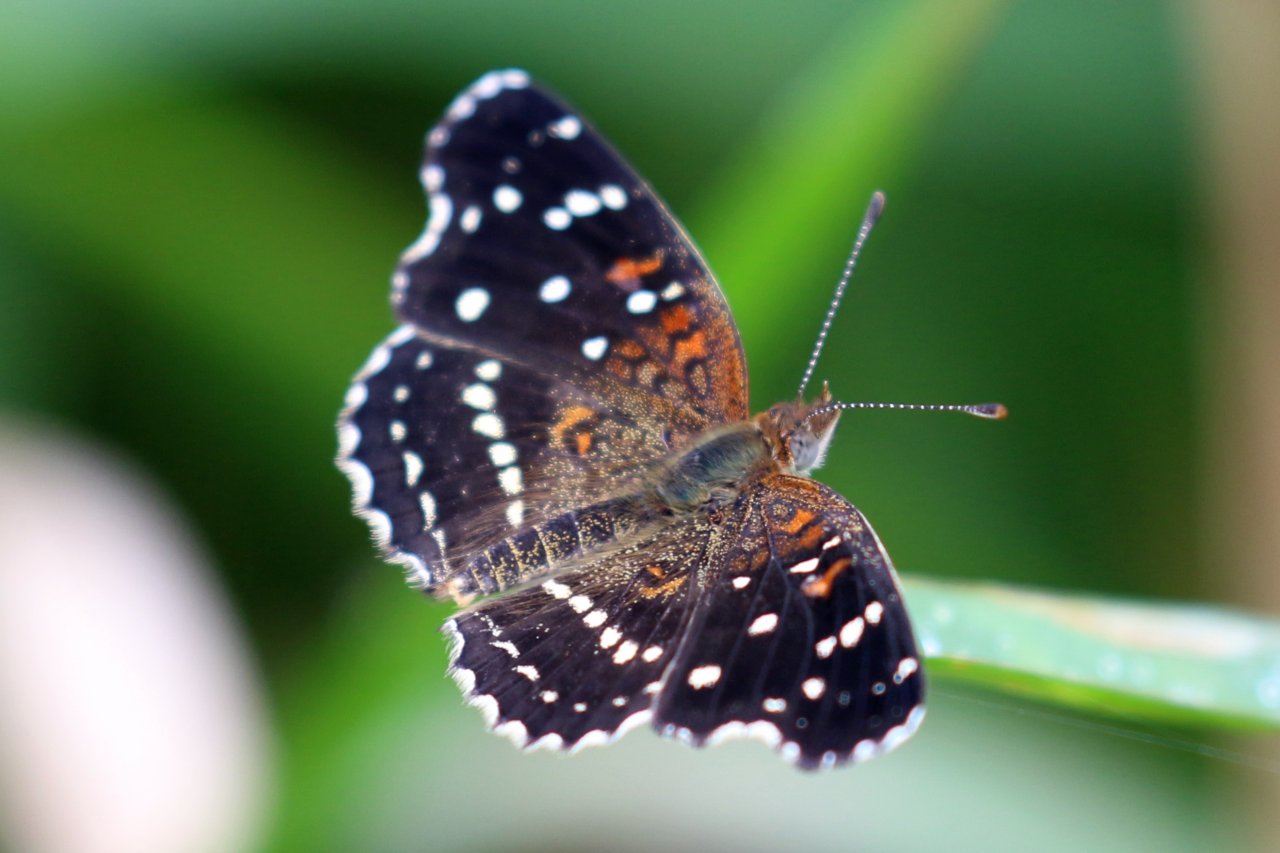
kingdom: Animalia
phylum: Arthropoda
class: Insecta
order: Lepidoptera
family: Nymphalidae
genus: Anthanassa
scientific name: Anthanassa texana
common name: Texan Crescent
